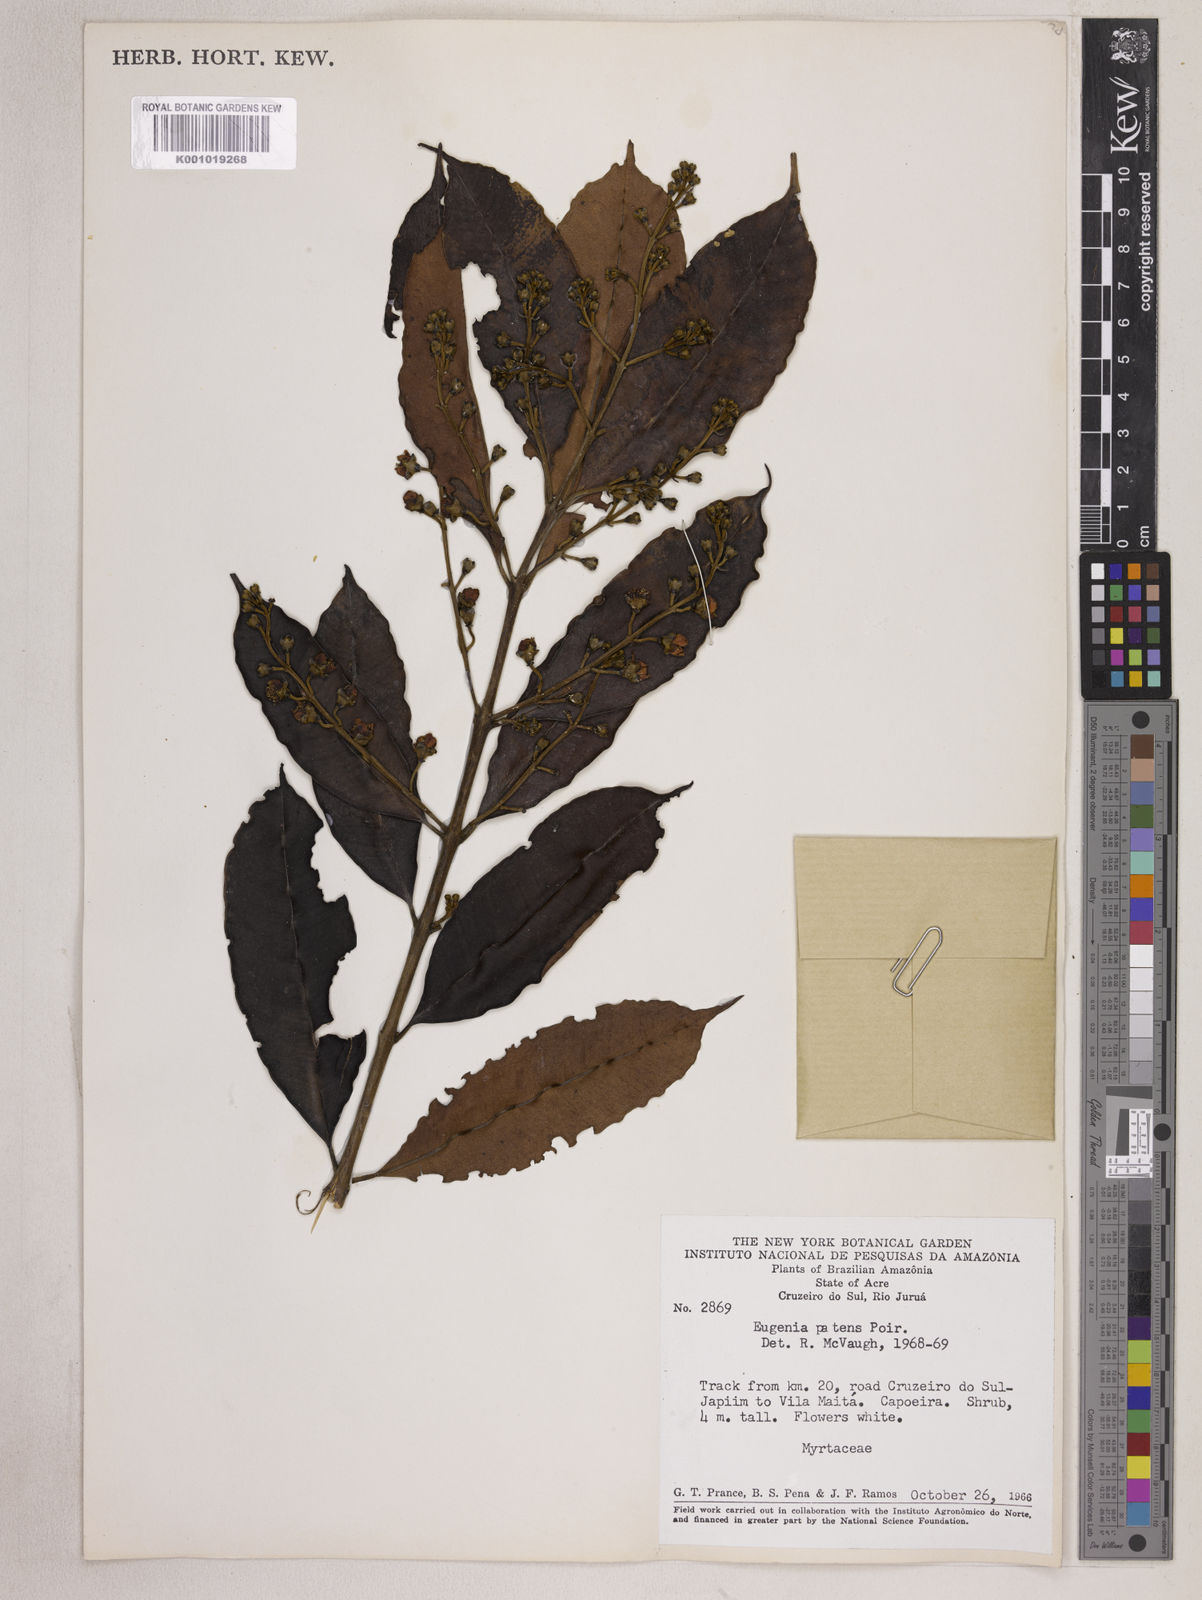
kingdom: Plantae
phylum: Tracheophyta
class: Magnoliopsida
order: Myrtales
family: Myrtaceae
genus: Eugenia
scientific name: Eugenia patens
